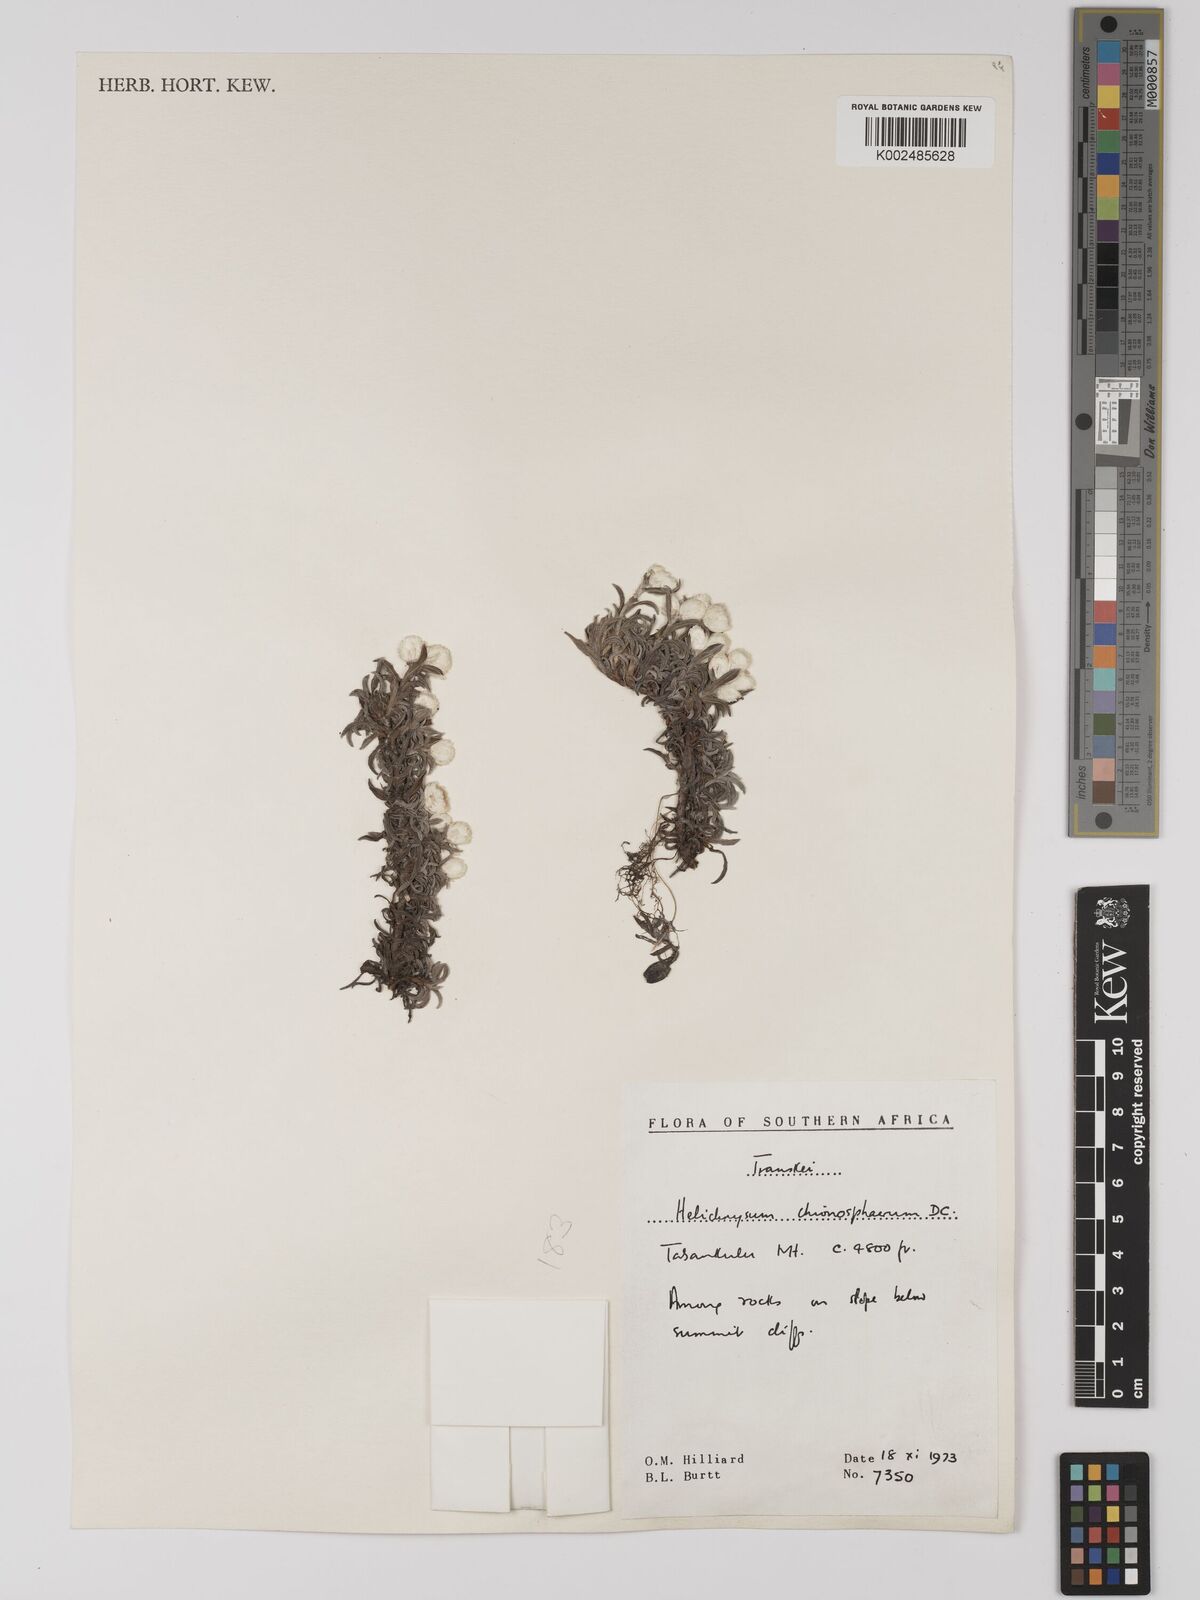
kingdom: Plantae
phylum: Tracheophyta
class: Magnoliopsida
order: Asterales
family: Asteraceae
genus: Helichrysum
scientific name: Helichrysum chionosphaerum
